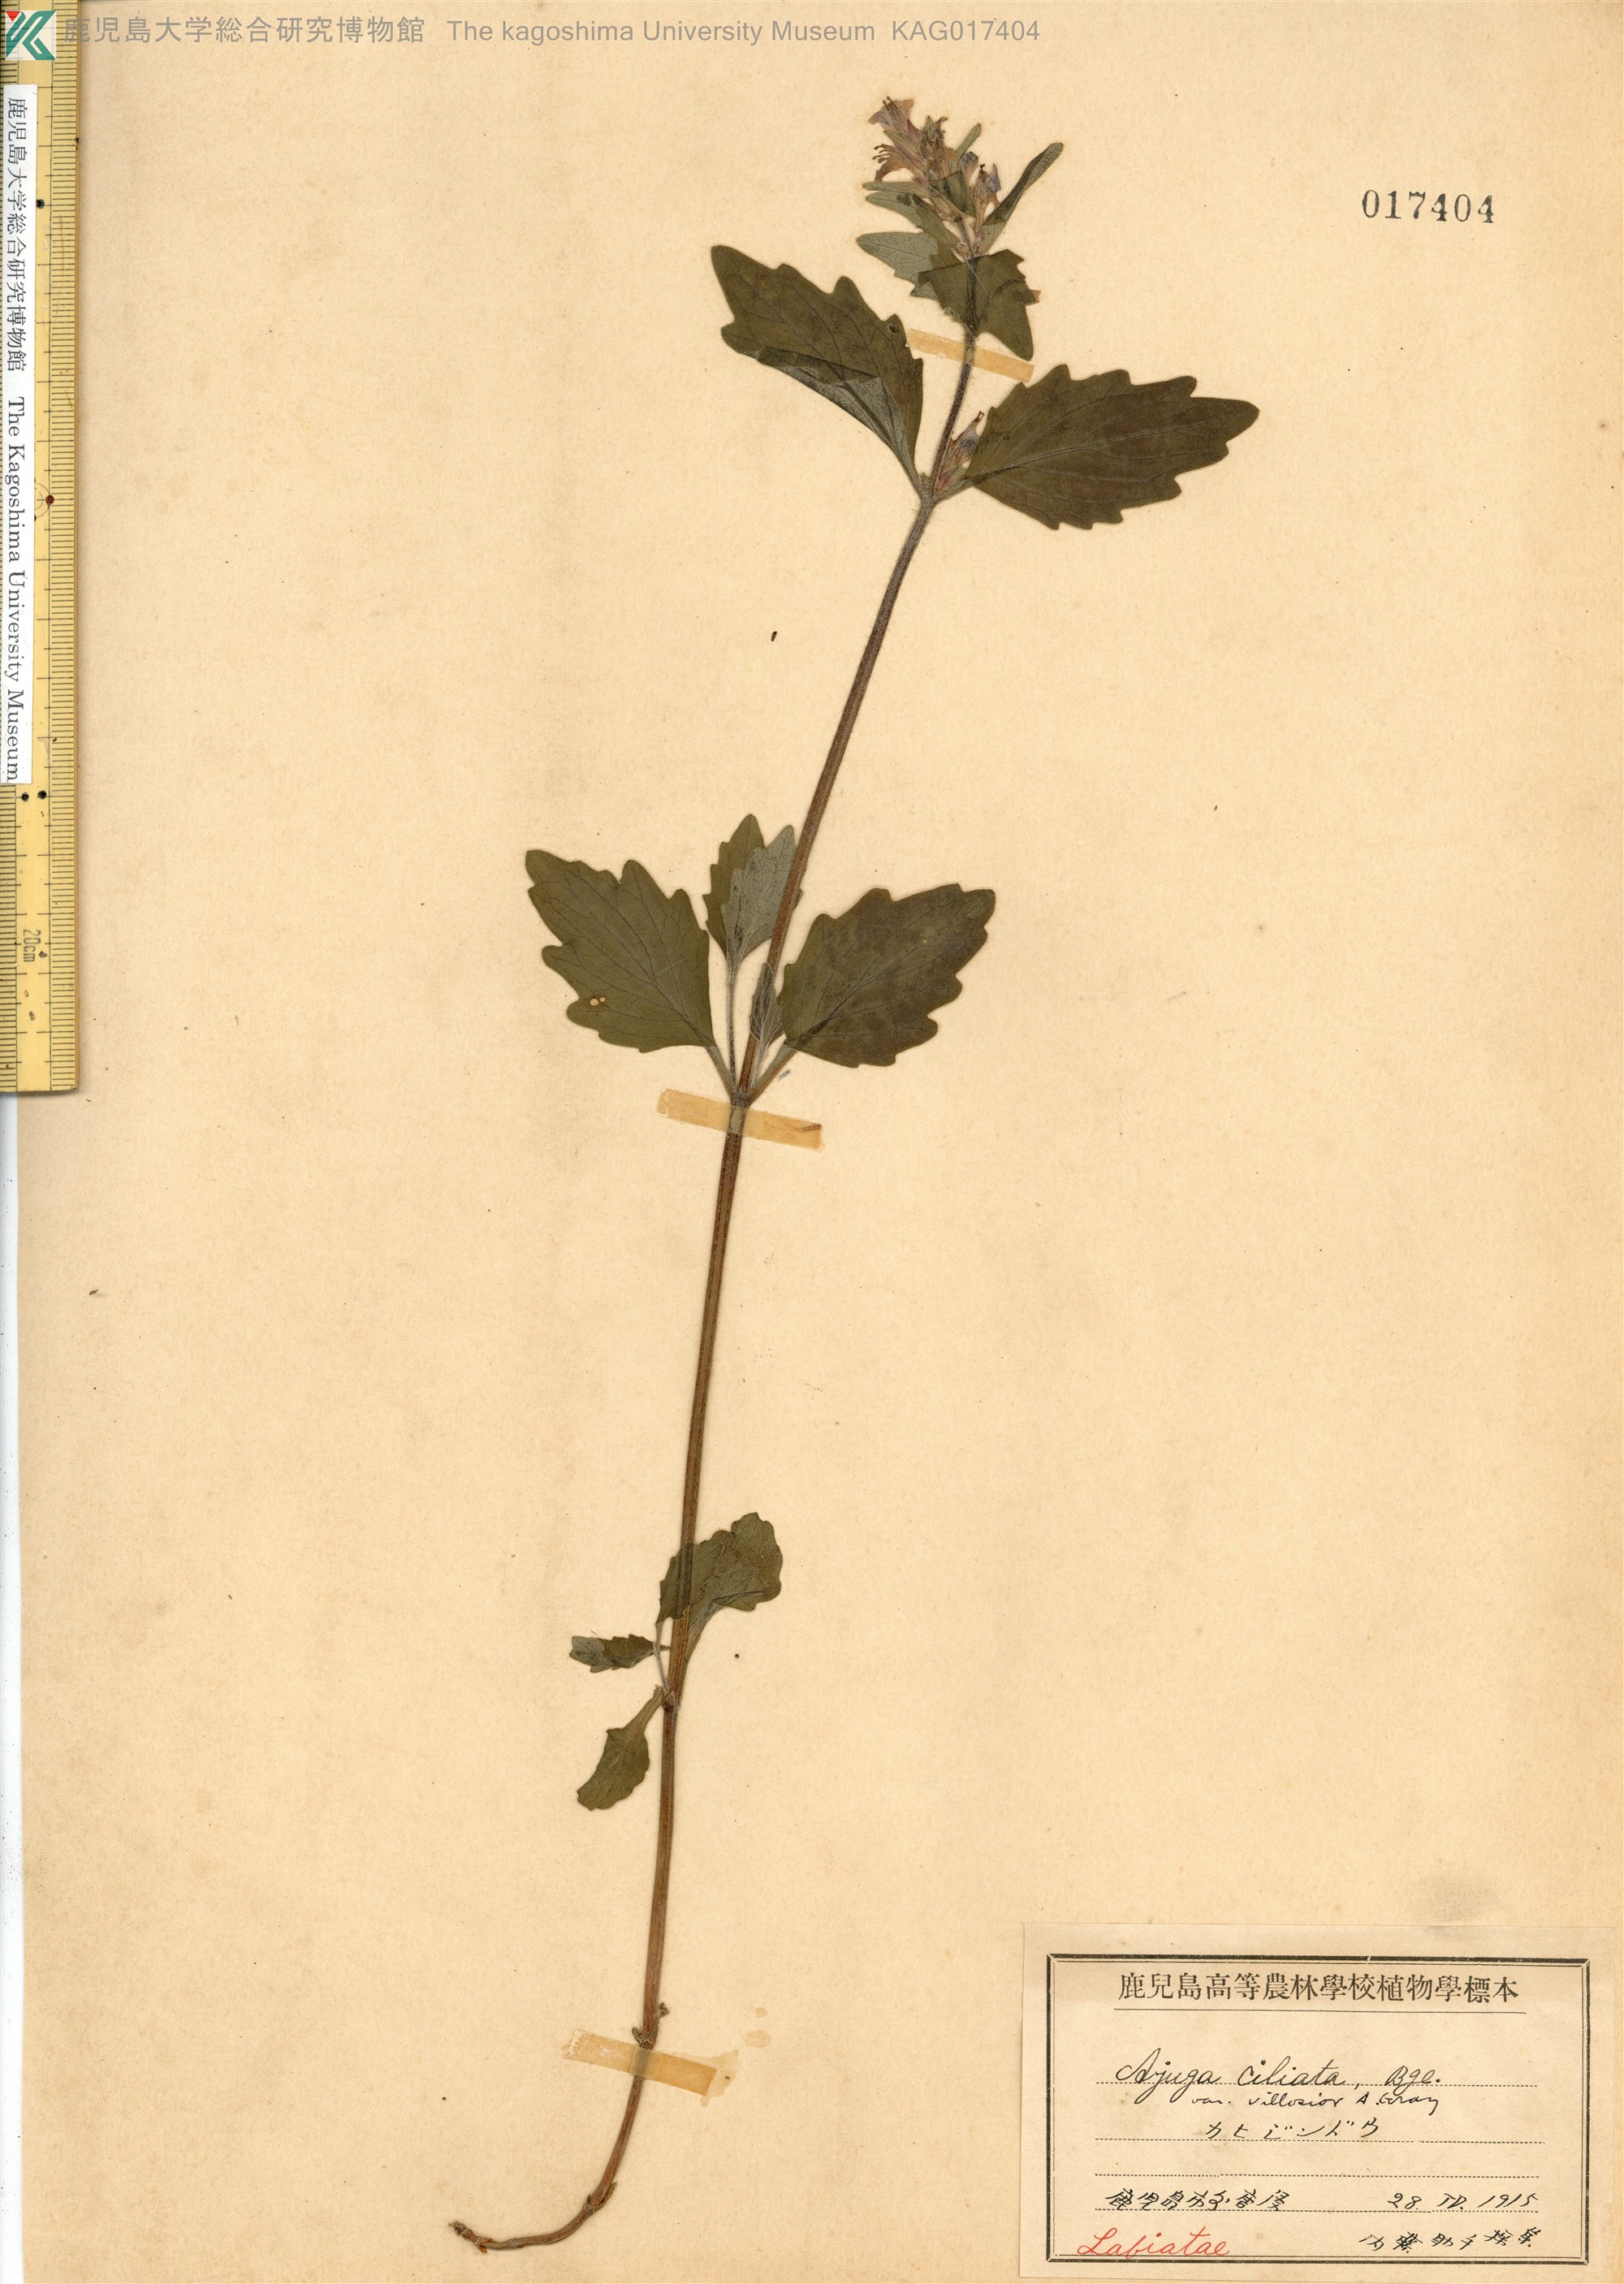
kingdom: Plantae
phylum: Tracheophyta
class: Magnoliopsida
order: Lamiales
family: Lamiaceae
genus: Ajuga
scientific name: Ajuga ciliata
